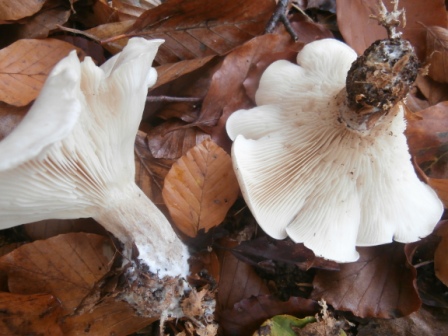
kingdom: Fungi
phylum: Basidiomycota
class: Agaricomycetes
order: Agaricales
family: Tricholomataceae
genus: Aspropaxillus
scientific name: Aspropaxillus giganteus
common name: kæmpe-tragtridderhat
